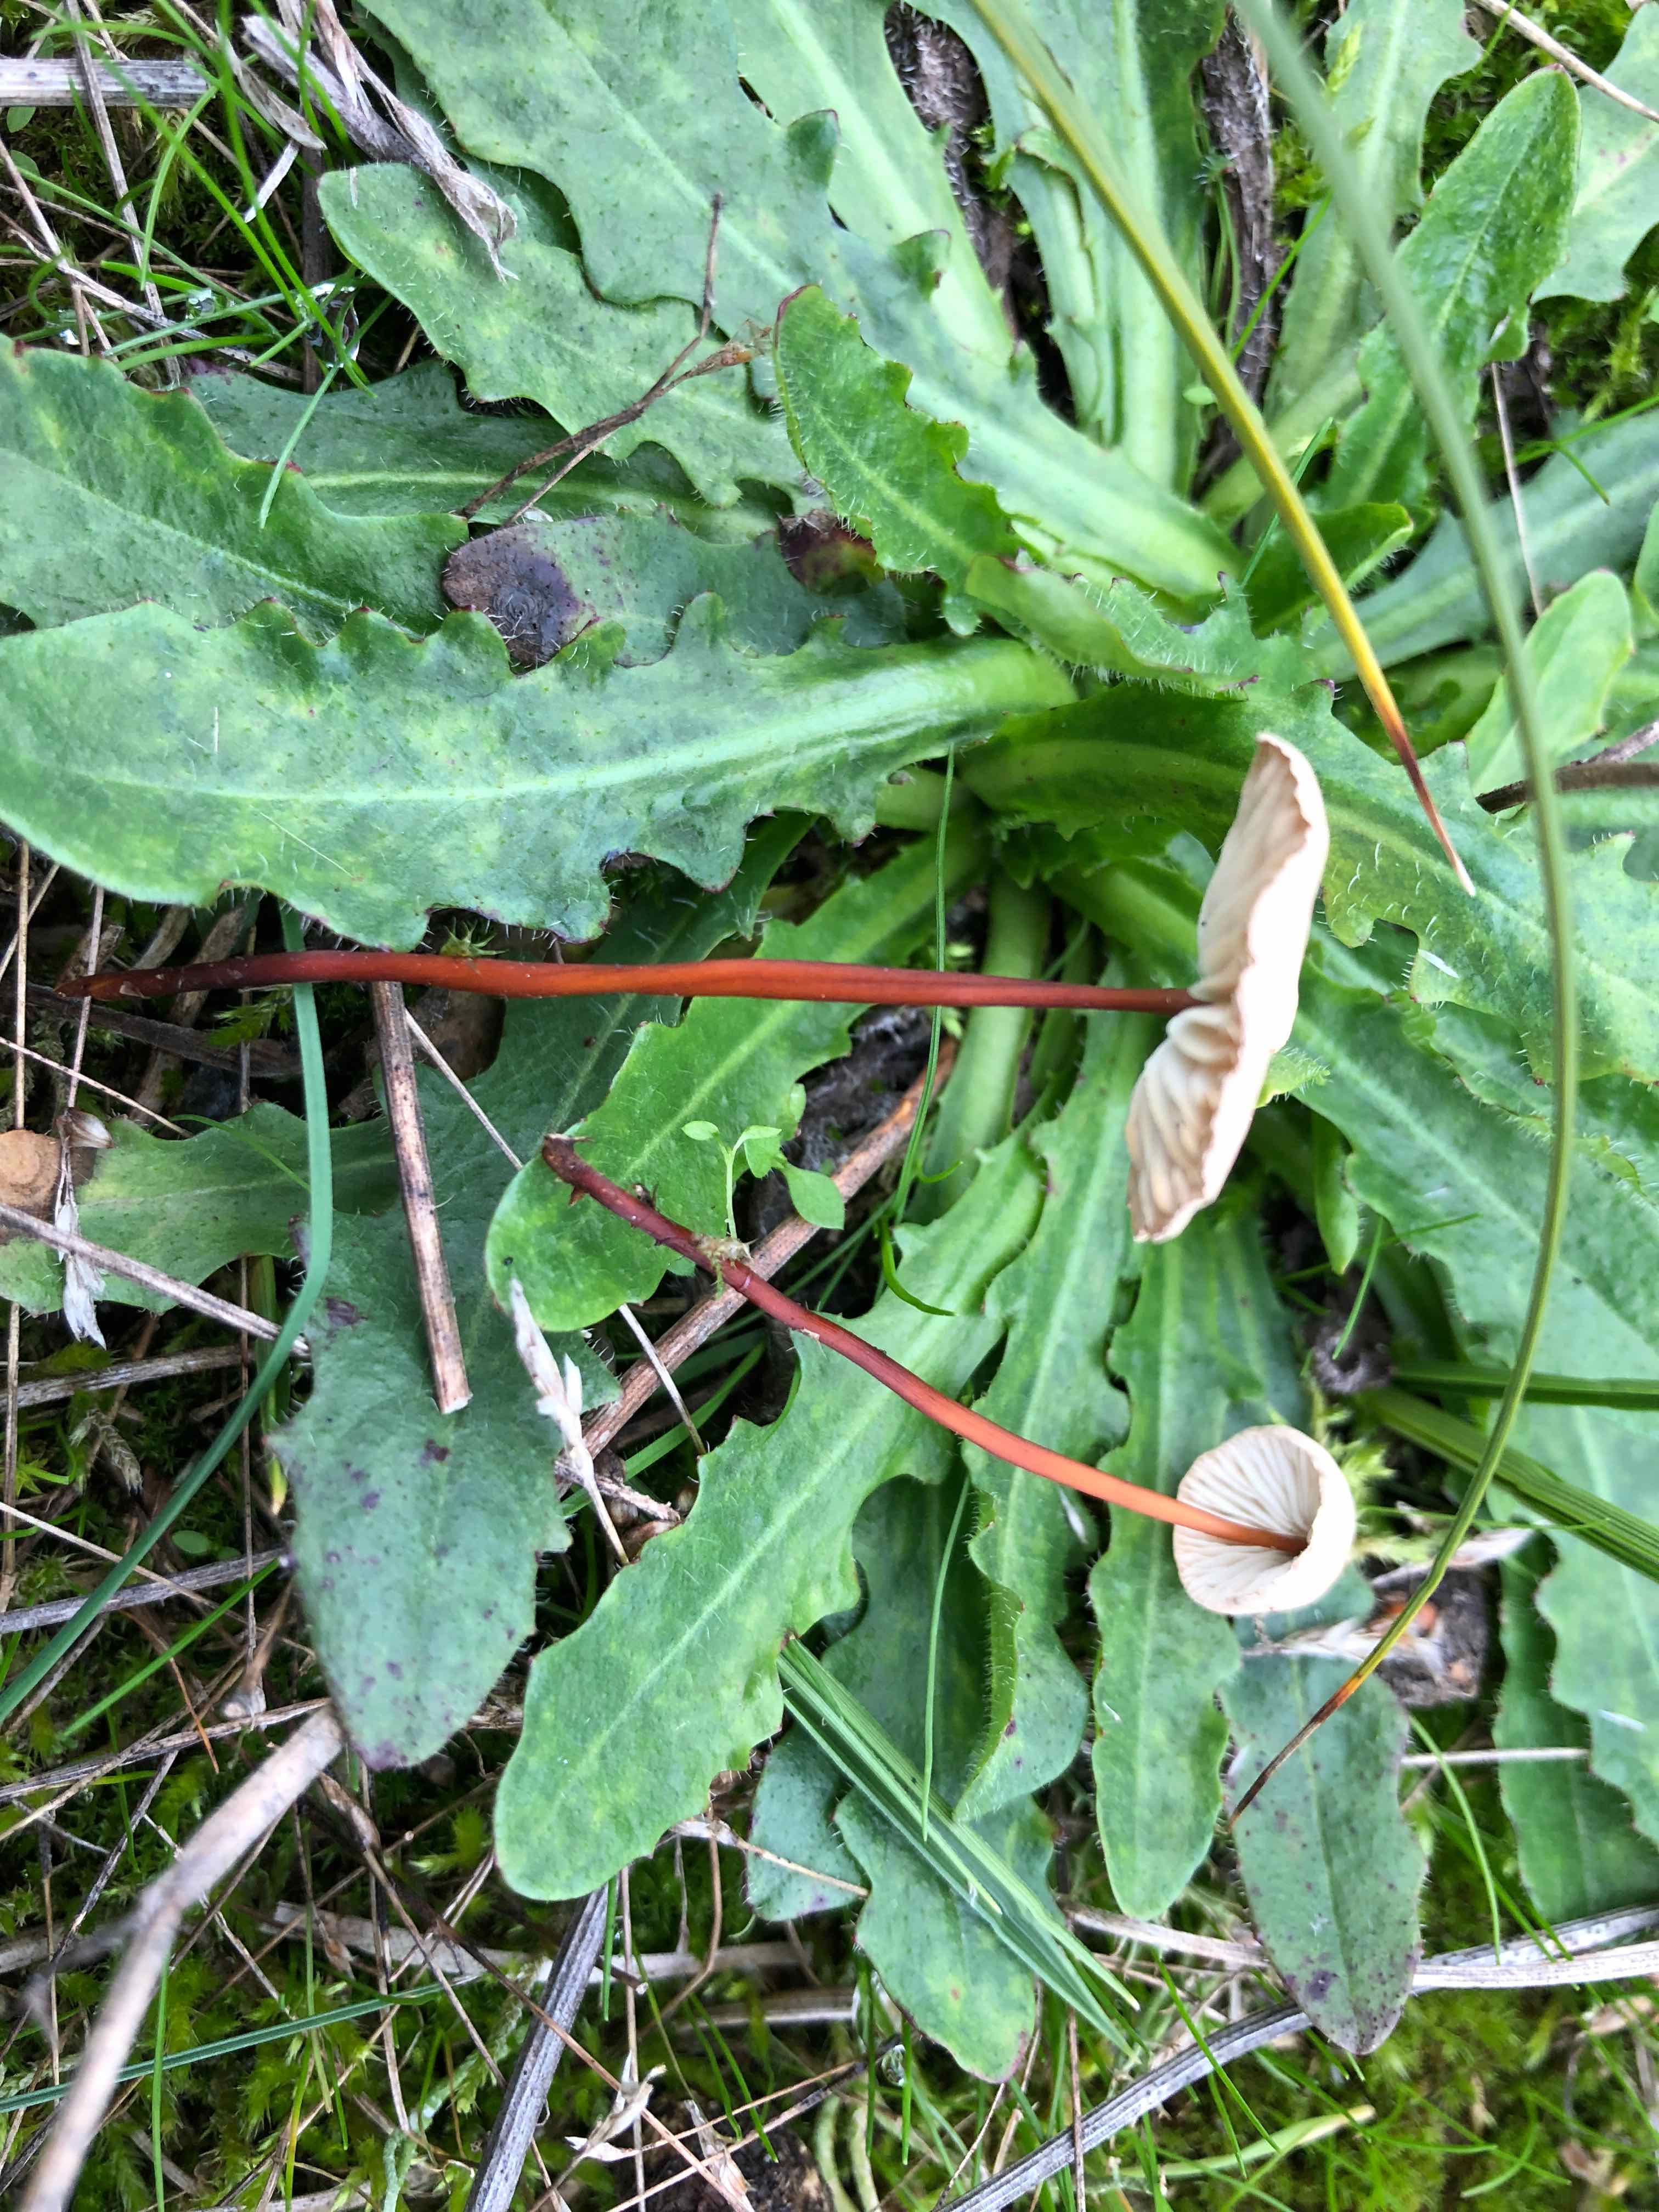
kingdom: Fungi
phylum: Basidiomycota
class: Agaricomycetes
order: Agaricales
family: Omphalotaceae
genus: Mycetinis
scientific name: Mycetinis scorodonius
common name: lille løghat
